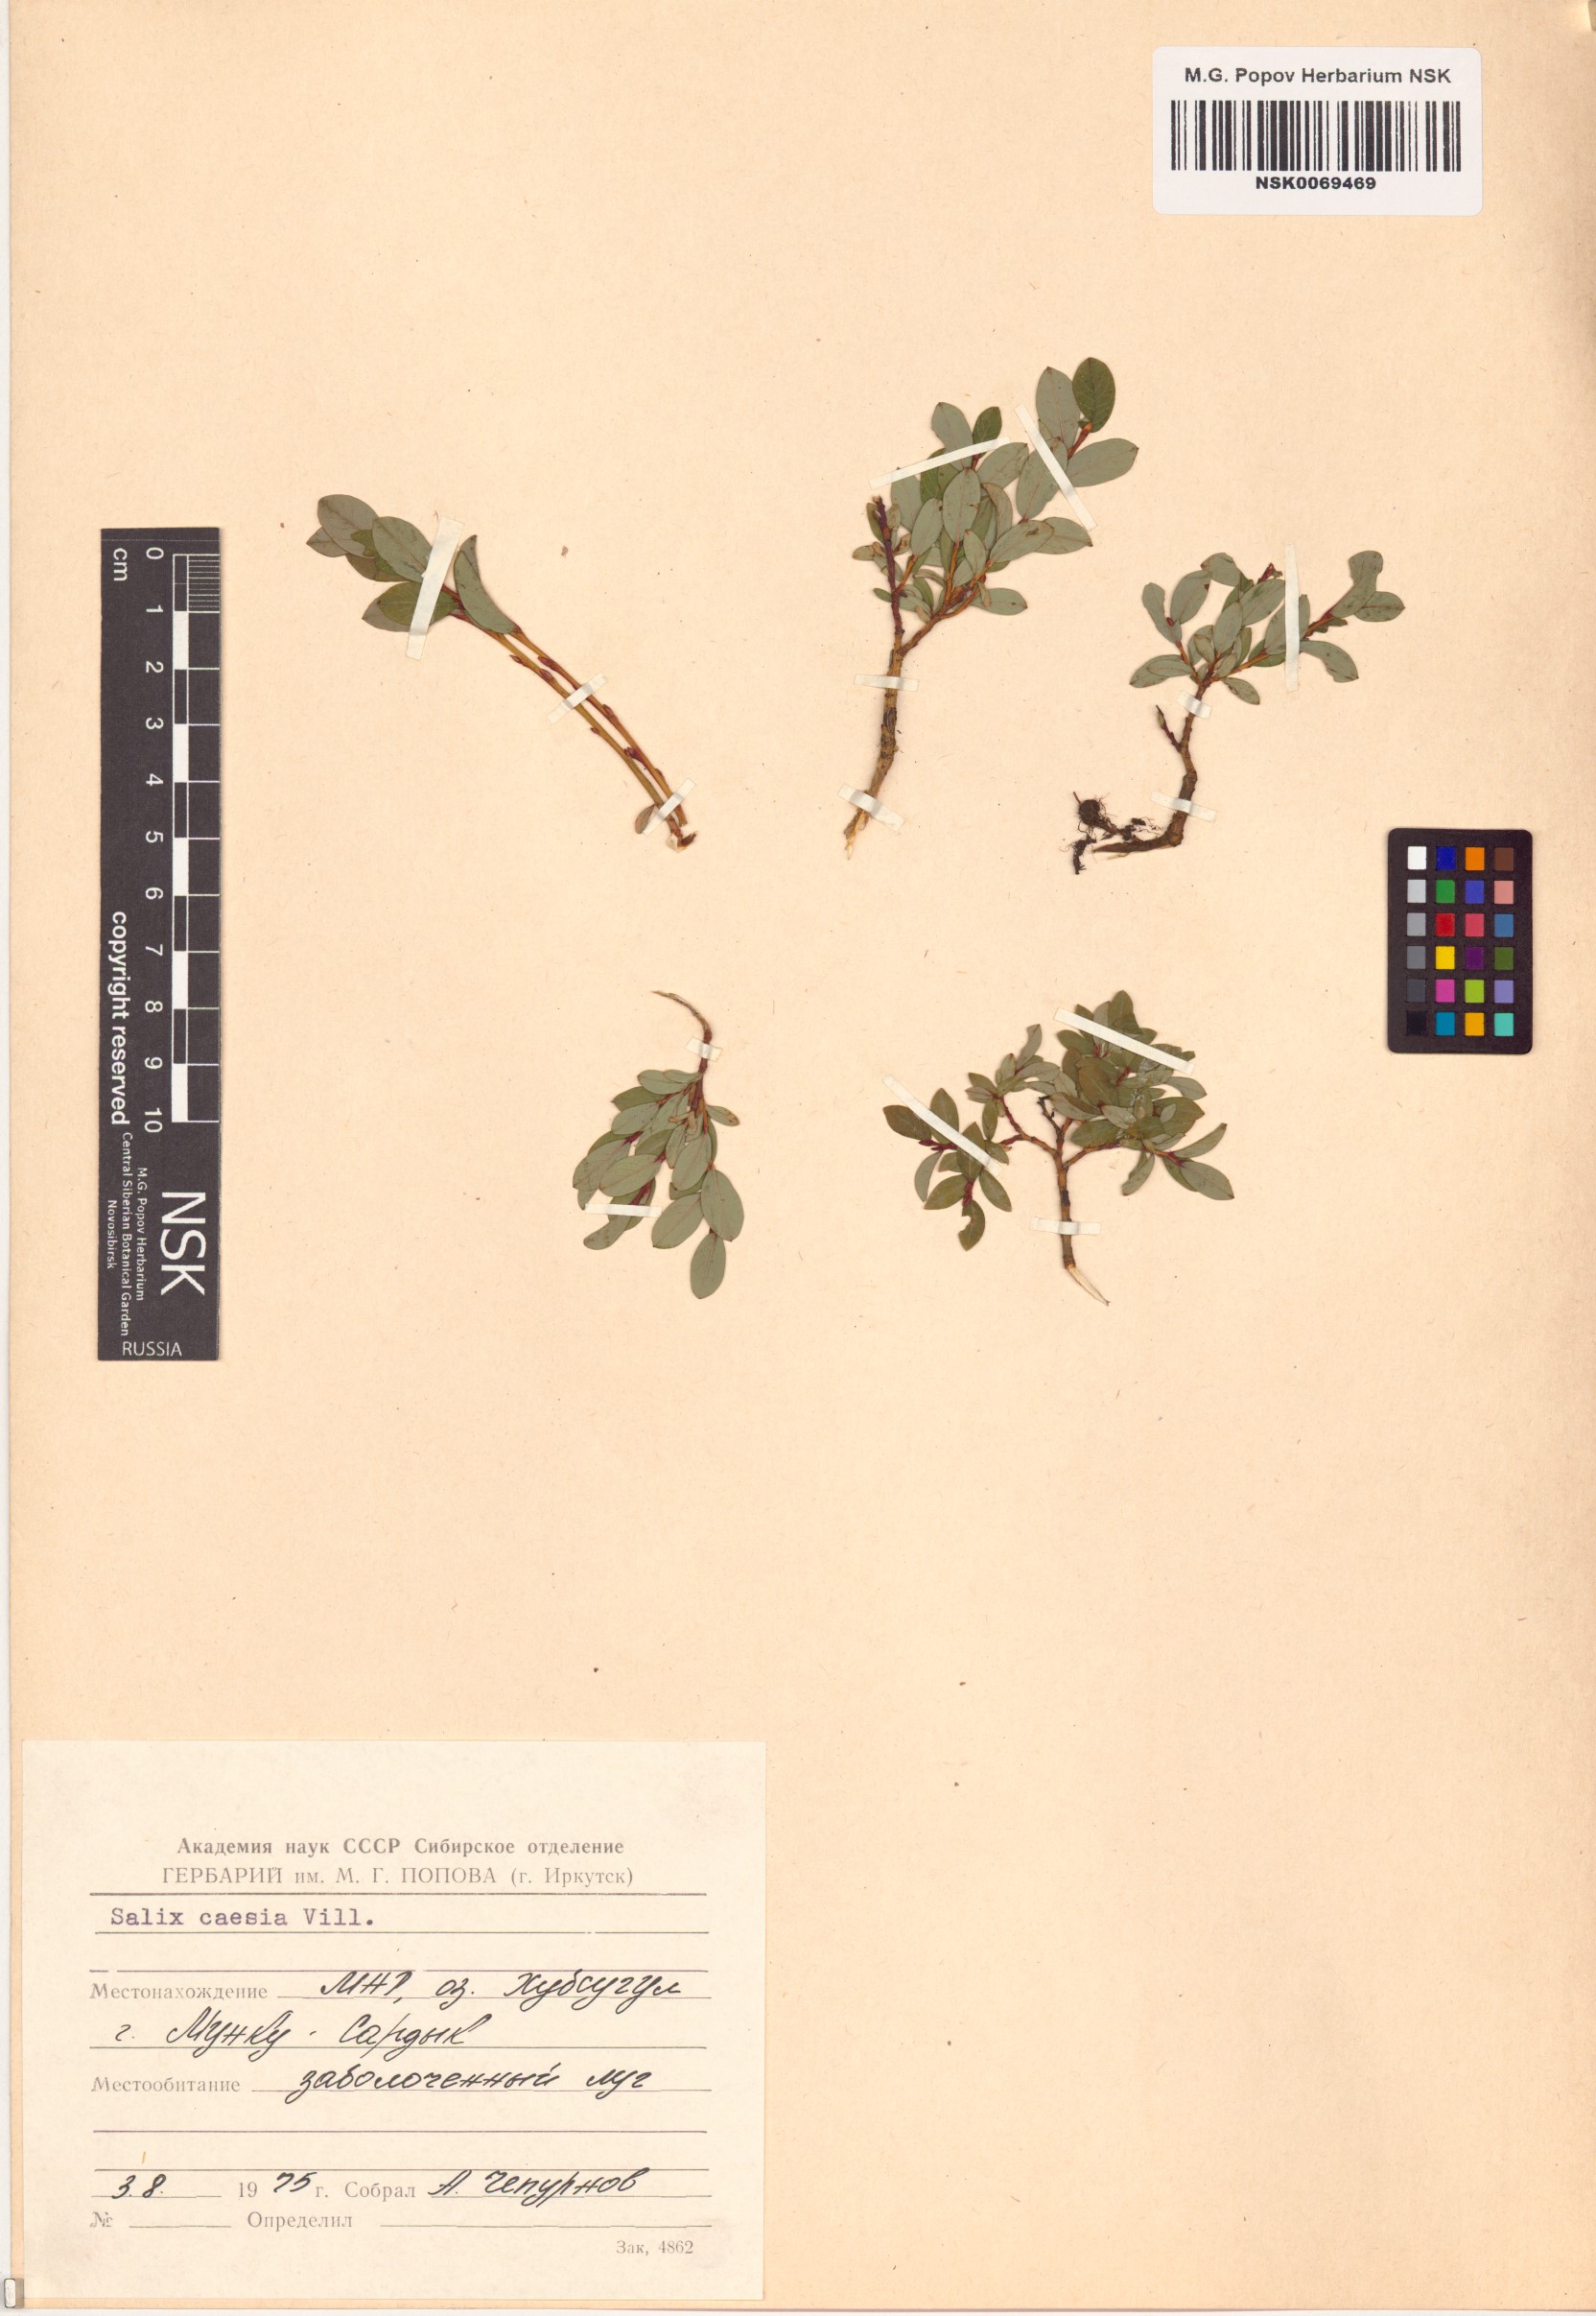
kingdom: Plantae
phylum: Tracheophyta
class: Magnoliopsida
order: Malpighiales
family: Salicaceae
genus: Salix
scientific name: Salix caesia
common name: Blue willow
